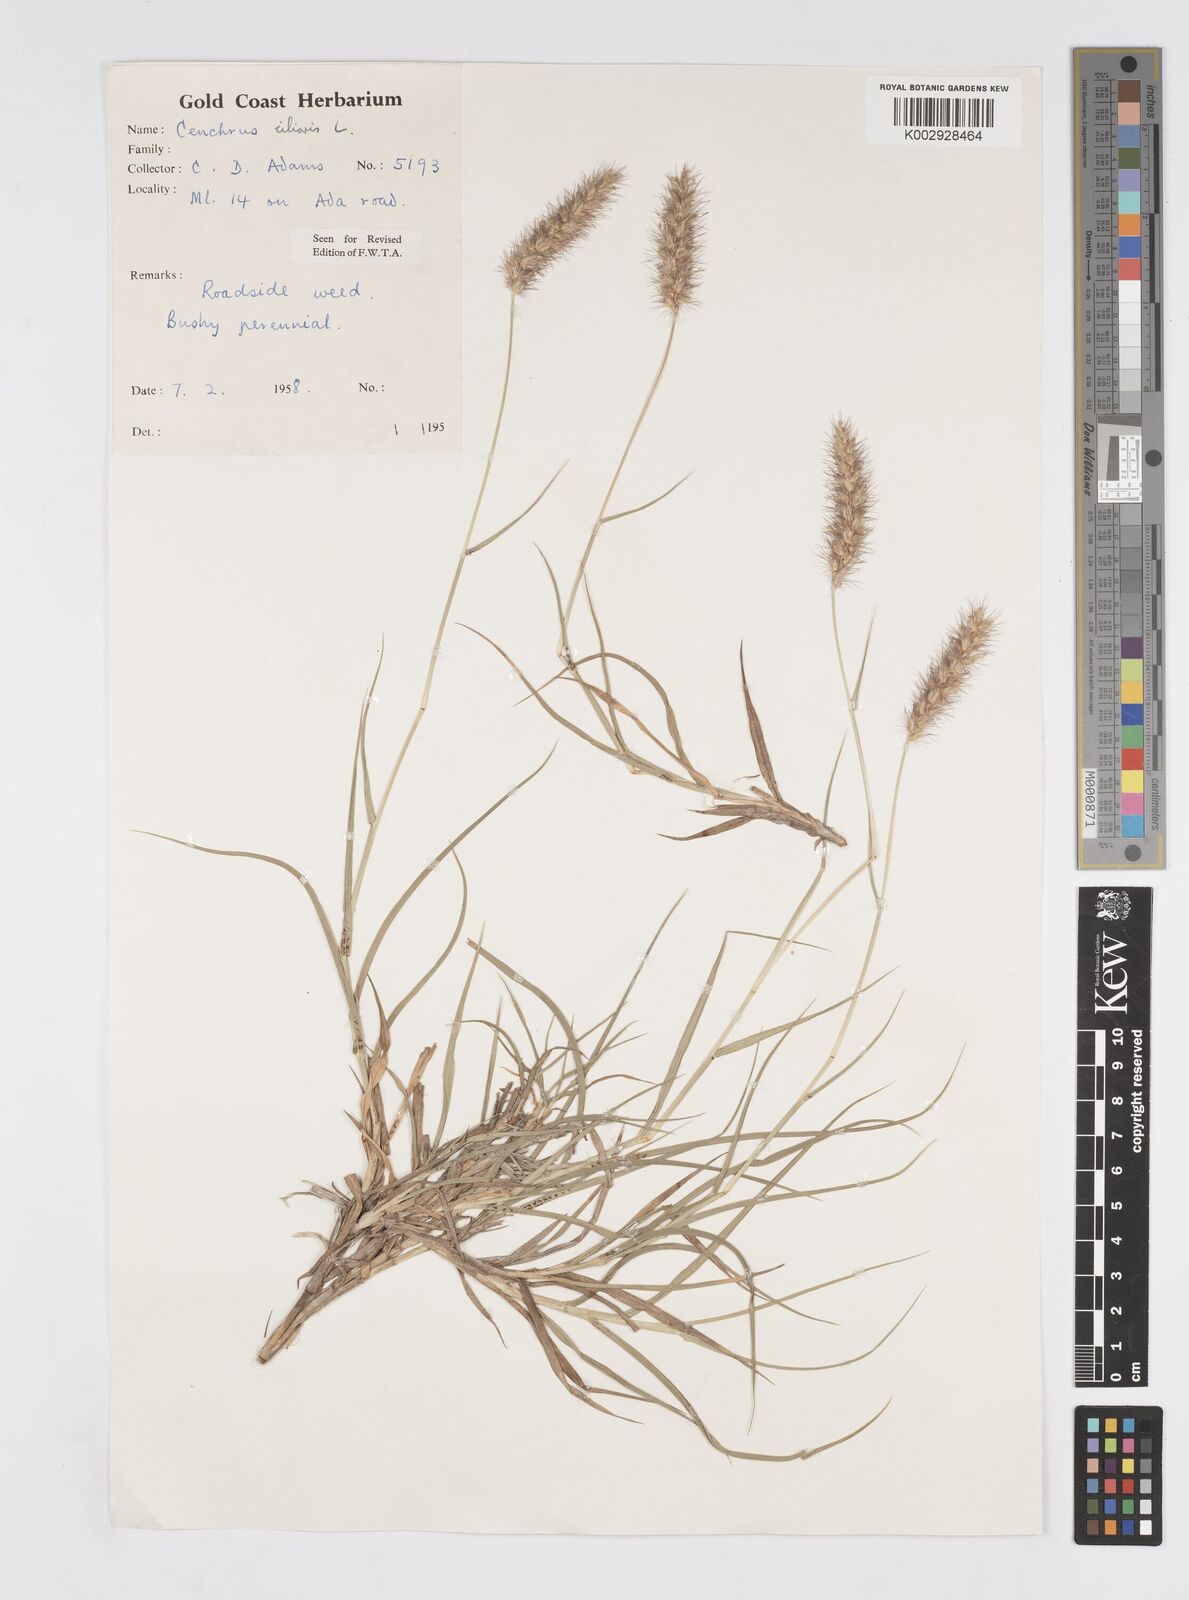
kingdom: Plantae
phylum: Tracheophyta
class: Liliopsida
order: Poales
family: Poaceae
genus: Cenchrus
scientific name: Cenchrus ciliaris
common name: Buffelgrass
